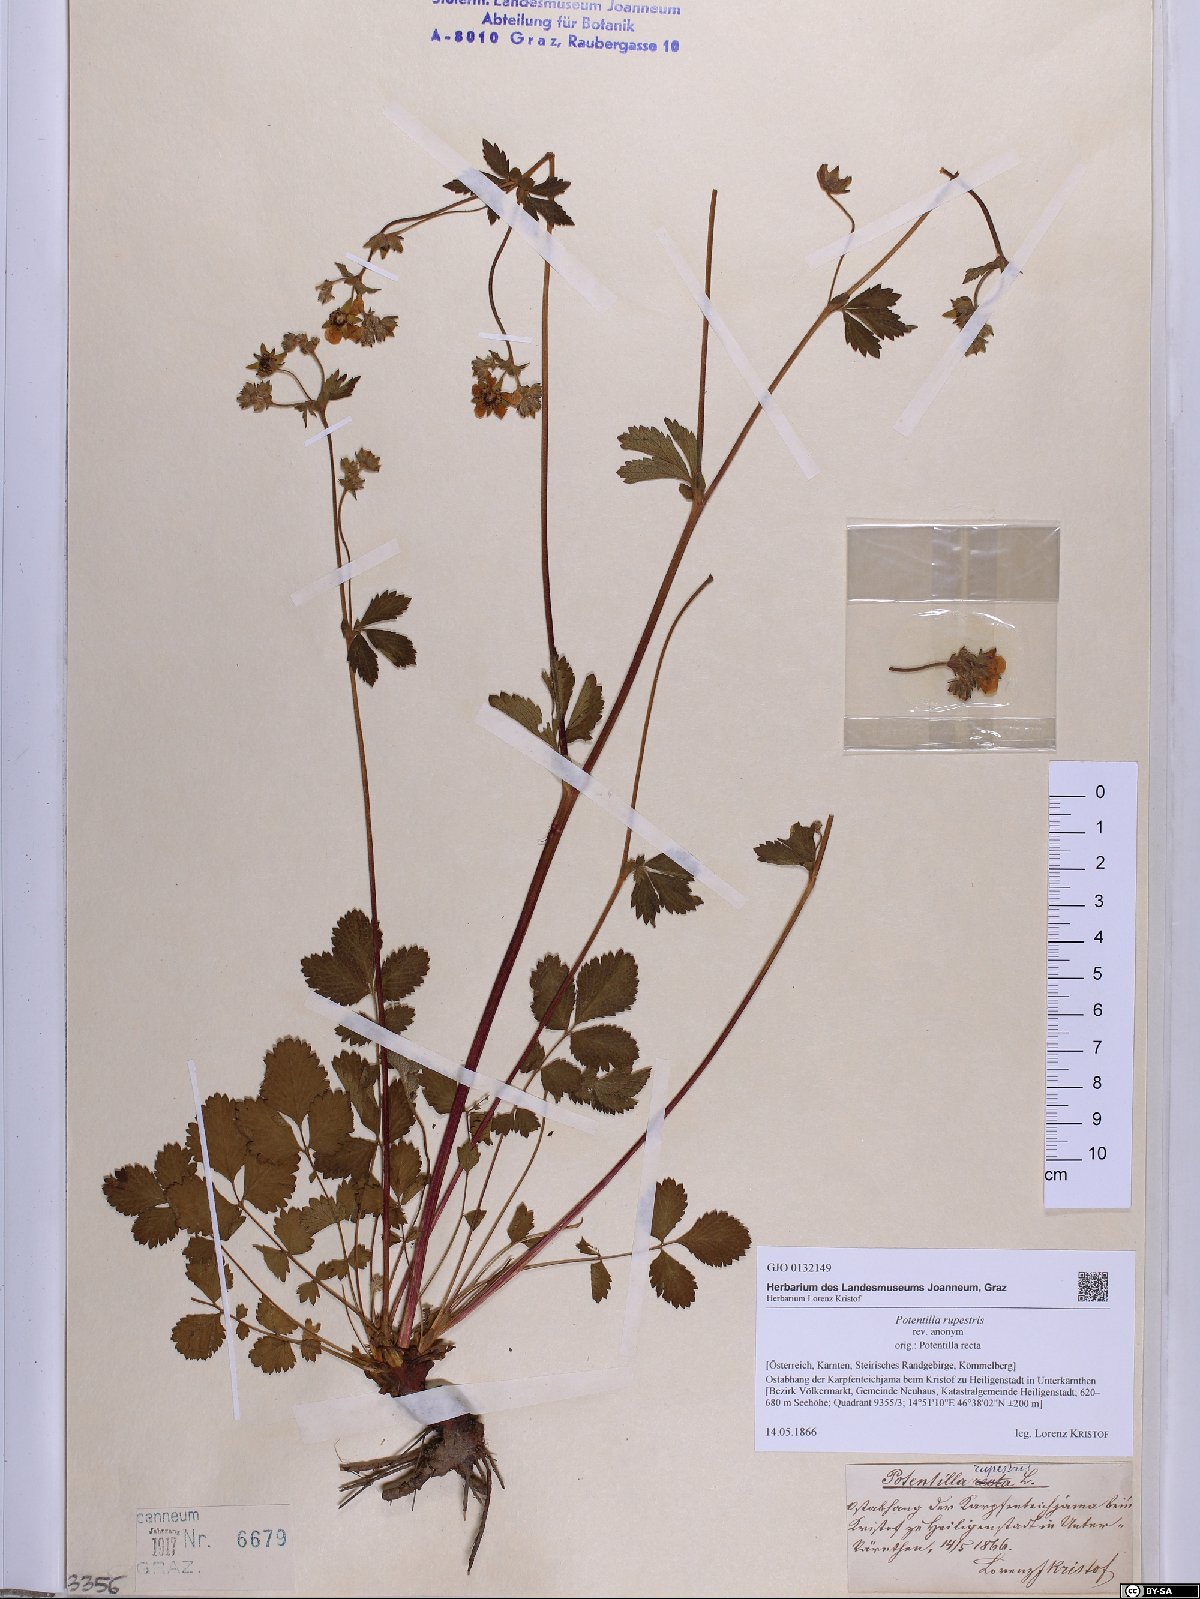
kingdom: Plantae
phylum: Tracheophyta
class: Magnoliopsida
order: Rosales
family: Rosaceae
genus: Drymocallis
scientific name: Drymocallis rupestris
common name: Rock cinquefoil
